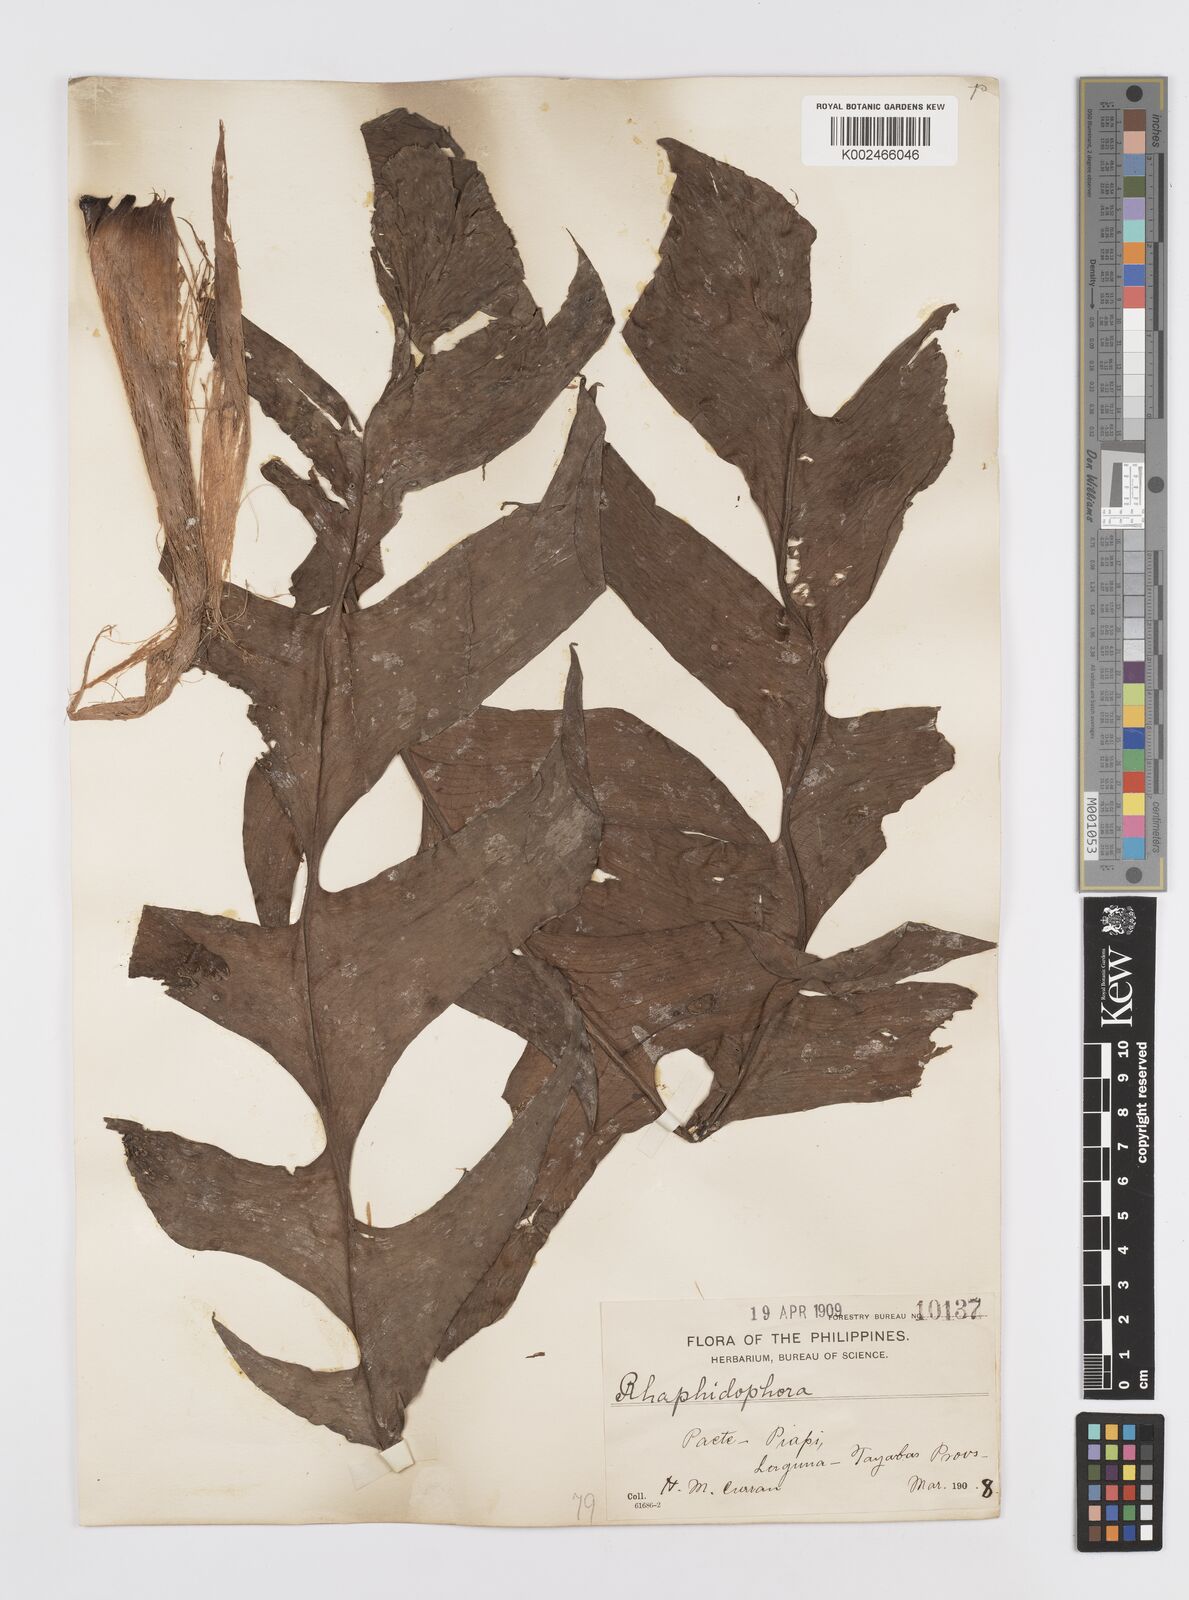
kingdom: Plantae
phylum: Tracheophyta
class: Liliopsida
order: Alismatales
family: Araceae
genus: Rhaphidophora
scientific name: Rhaphidophora korthalsii
